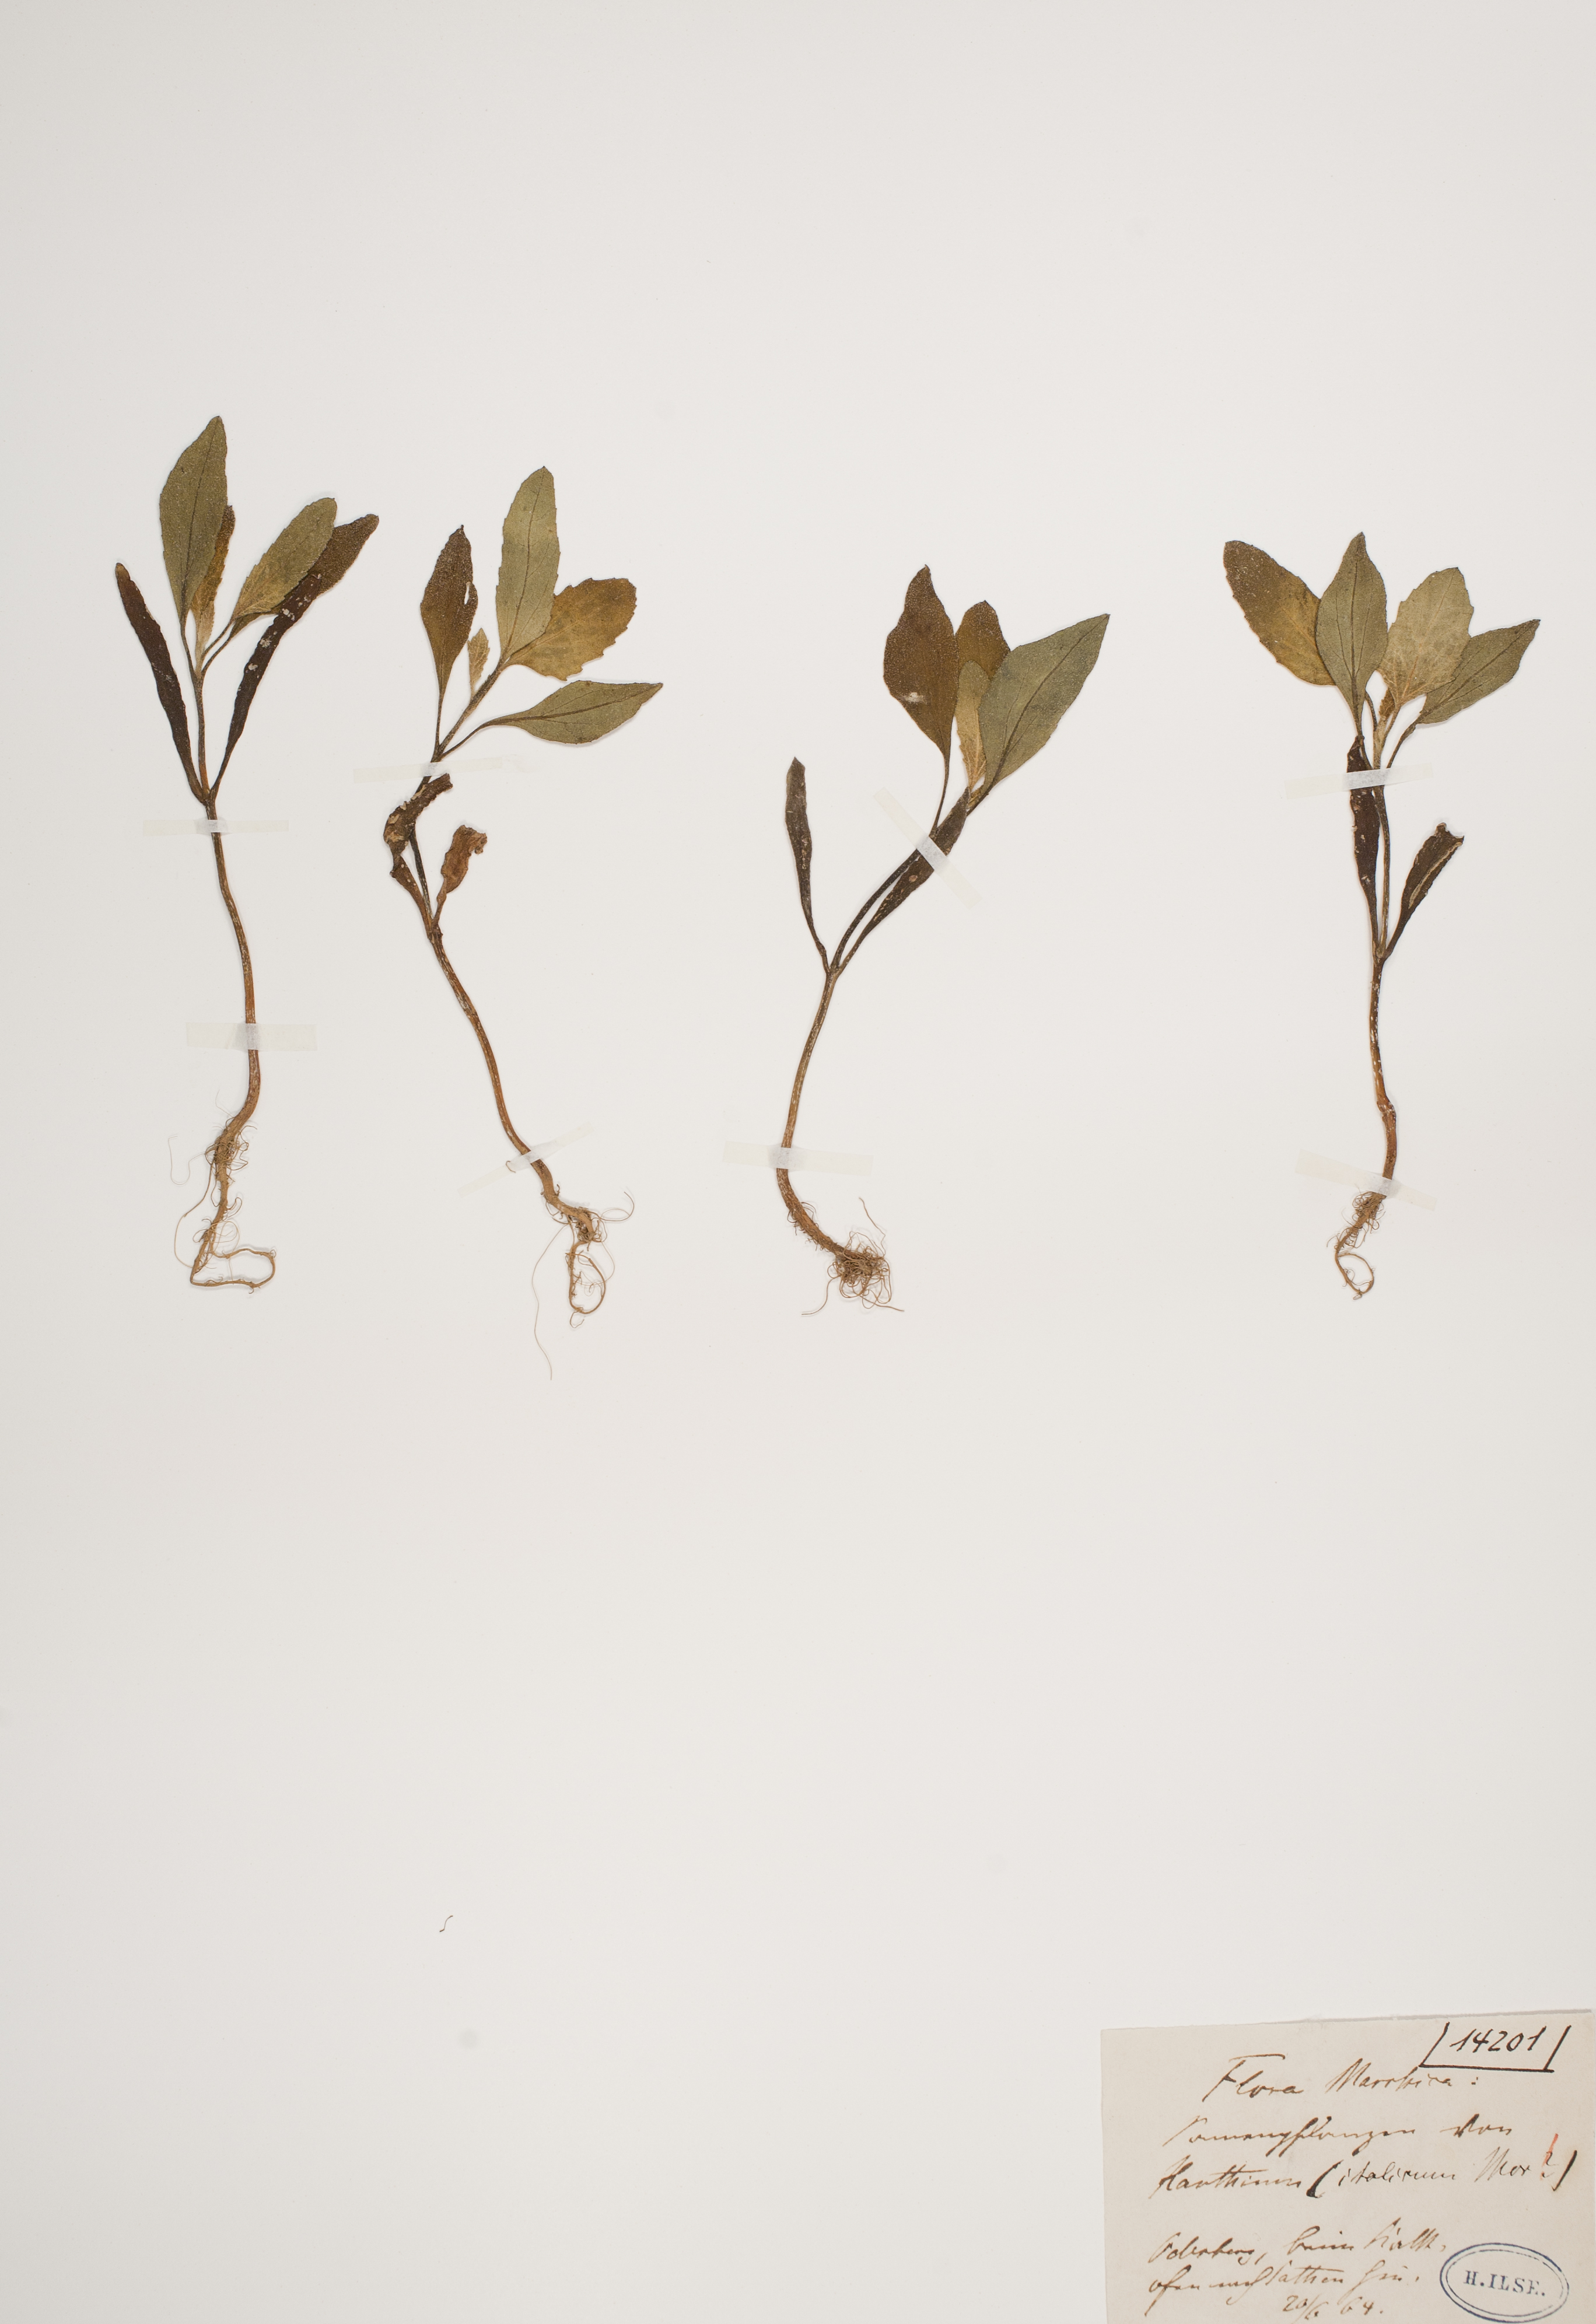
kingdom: Plantae
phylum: Tracheophyta
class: Magnoliopsida
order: Asterales
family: Asteraceae
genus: Xanthium
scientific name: Xanthium orientale
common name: Californian burr
